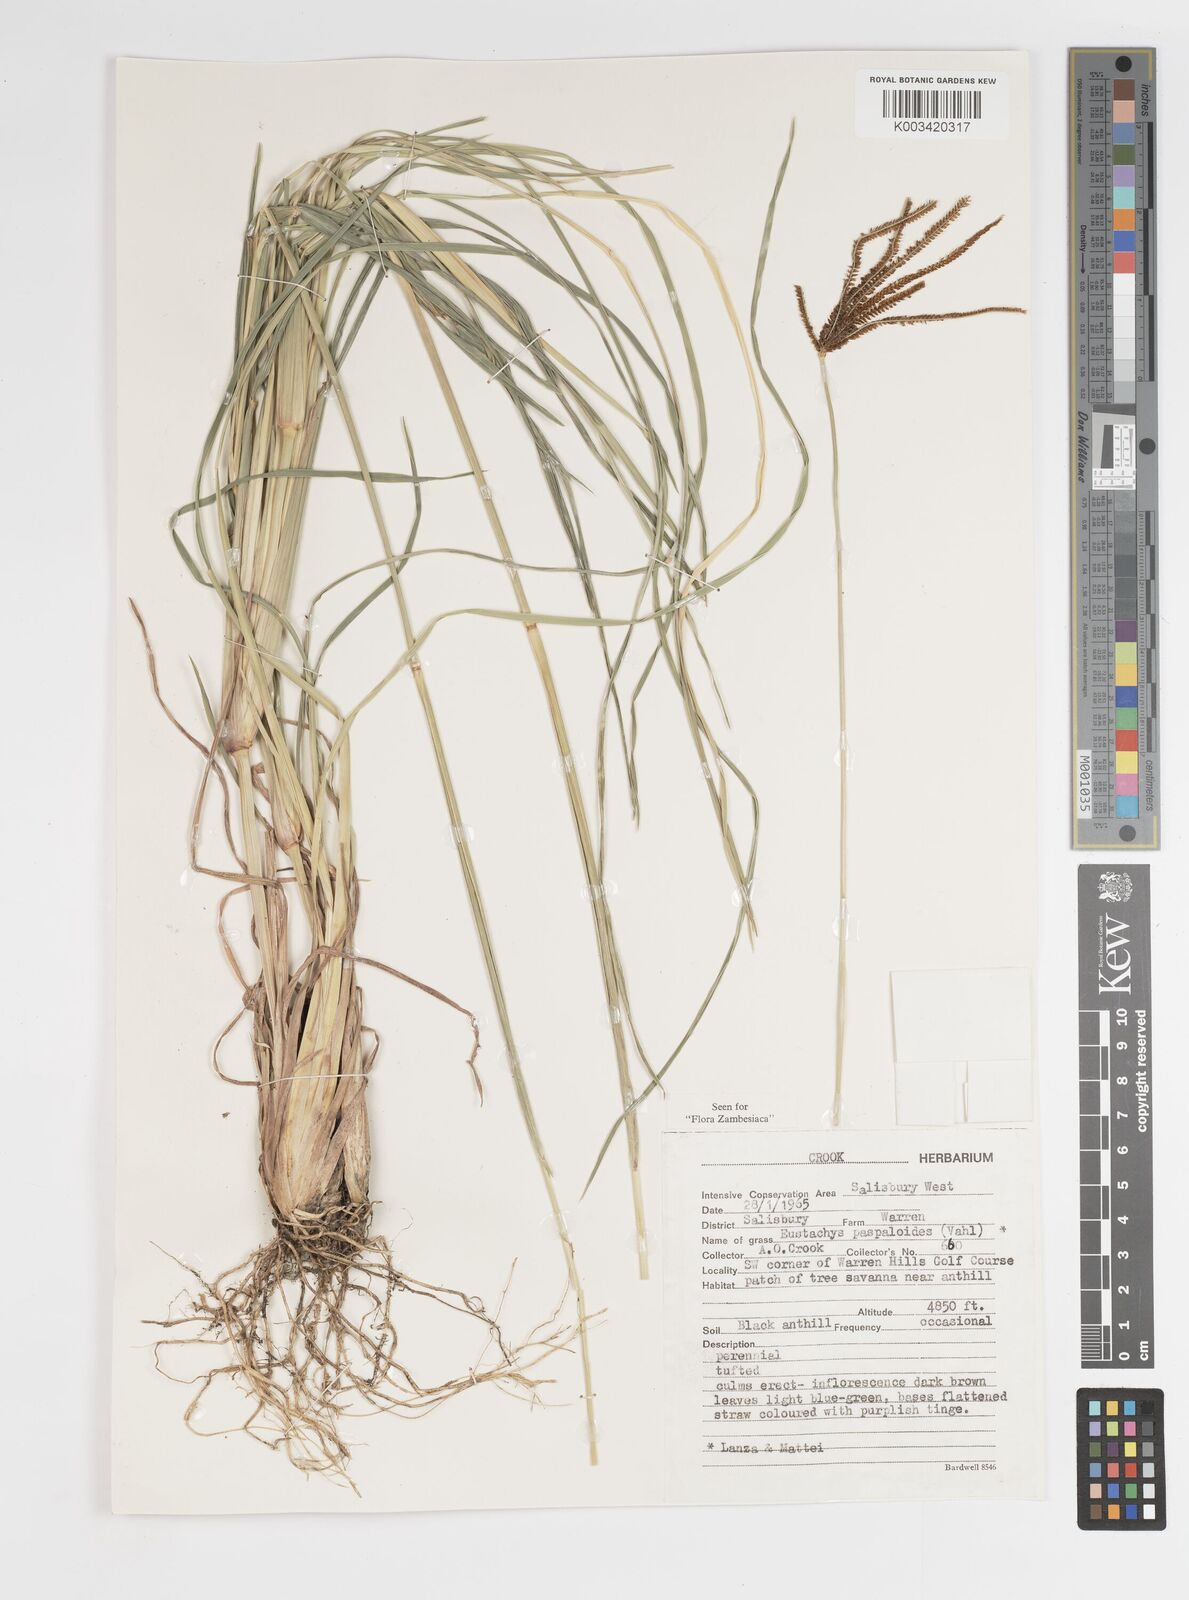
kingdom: Plantae
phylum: Tracheophyta
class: Liliopsida
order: Poales
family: Poaceae
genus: Eustachys
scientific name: Eustachys paspaloides
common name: Caribbean fingergrass
